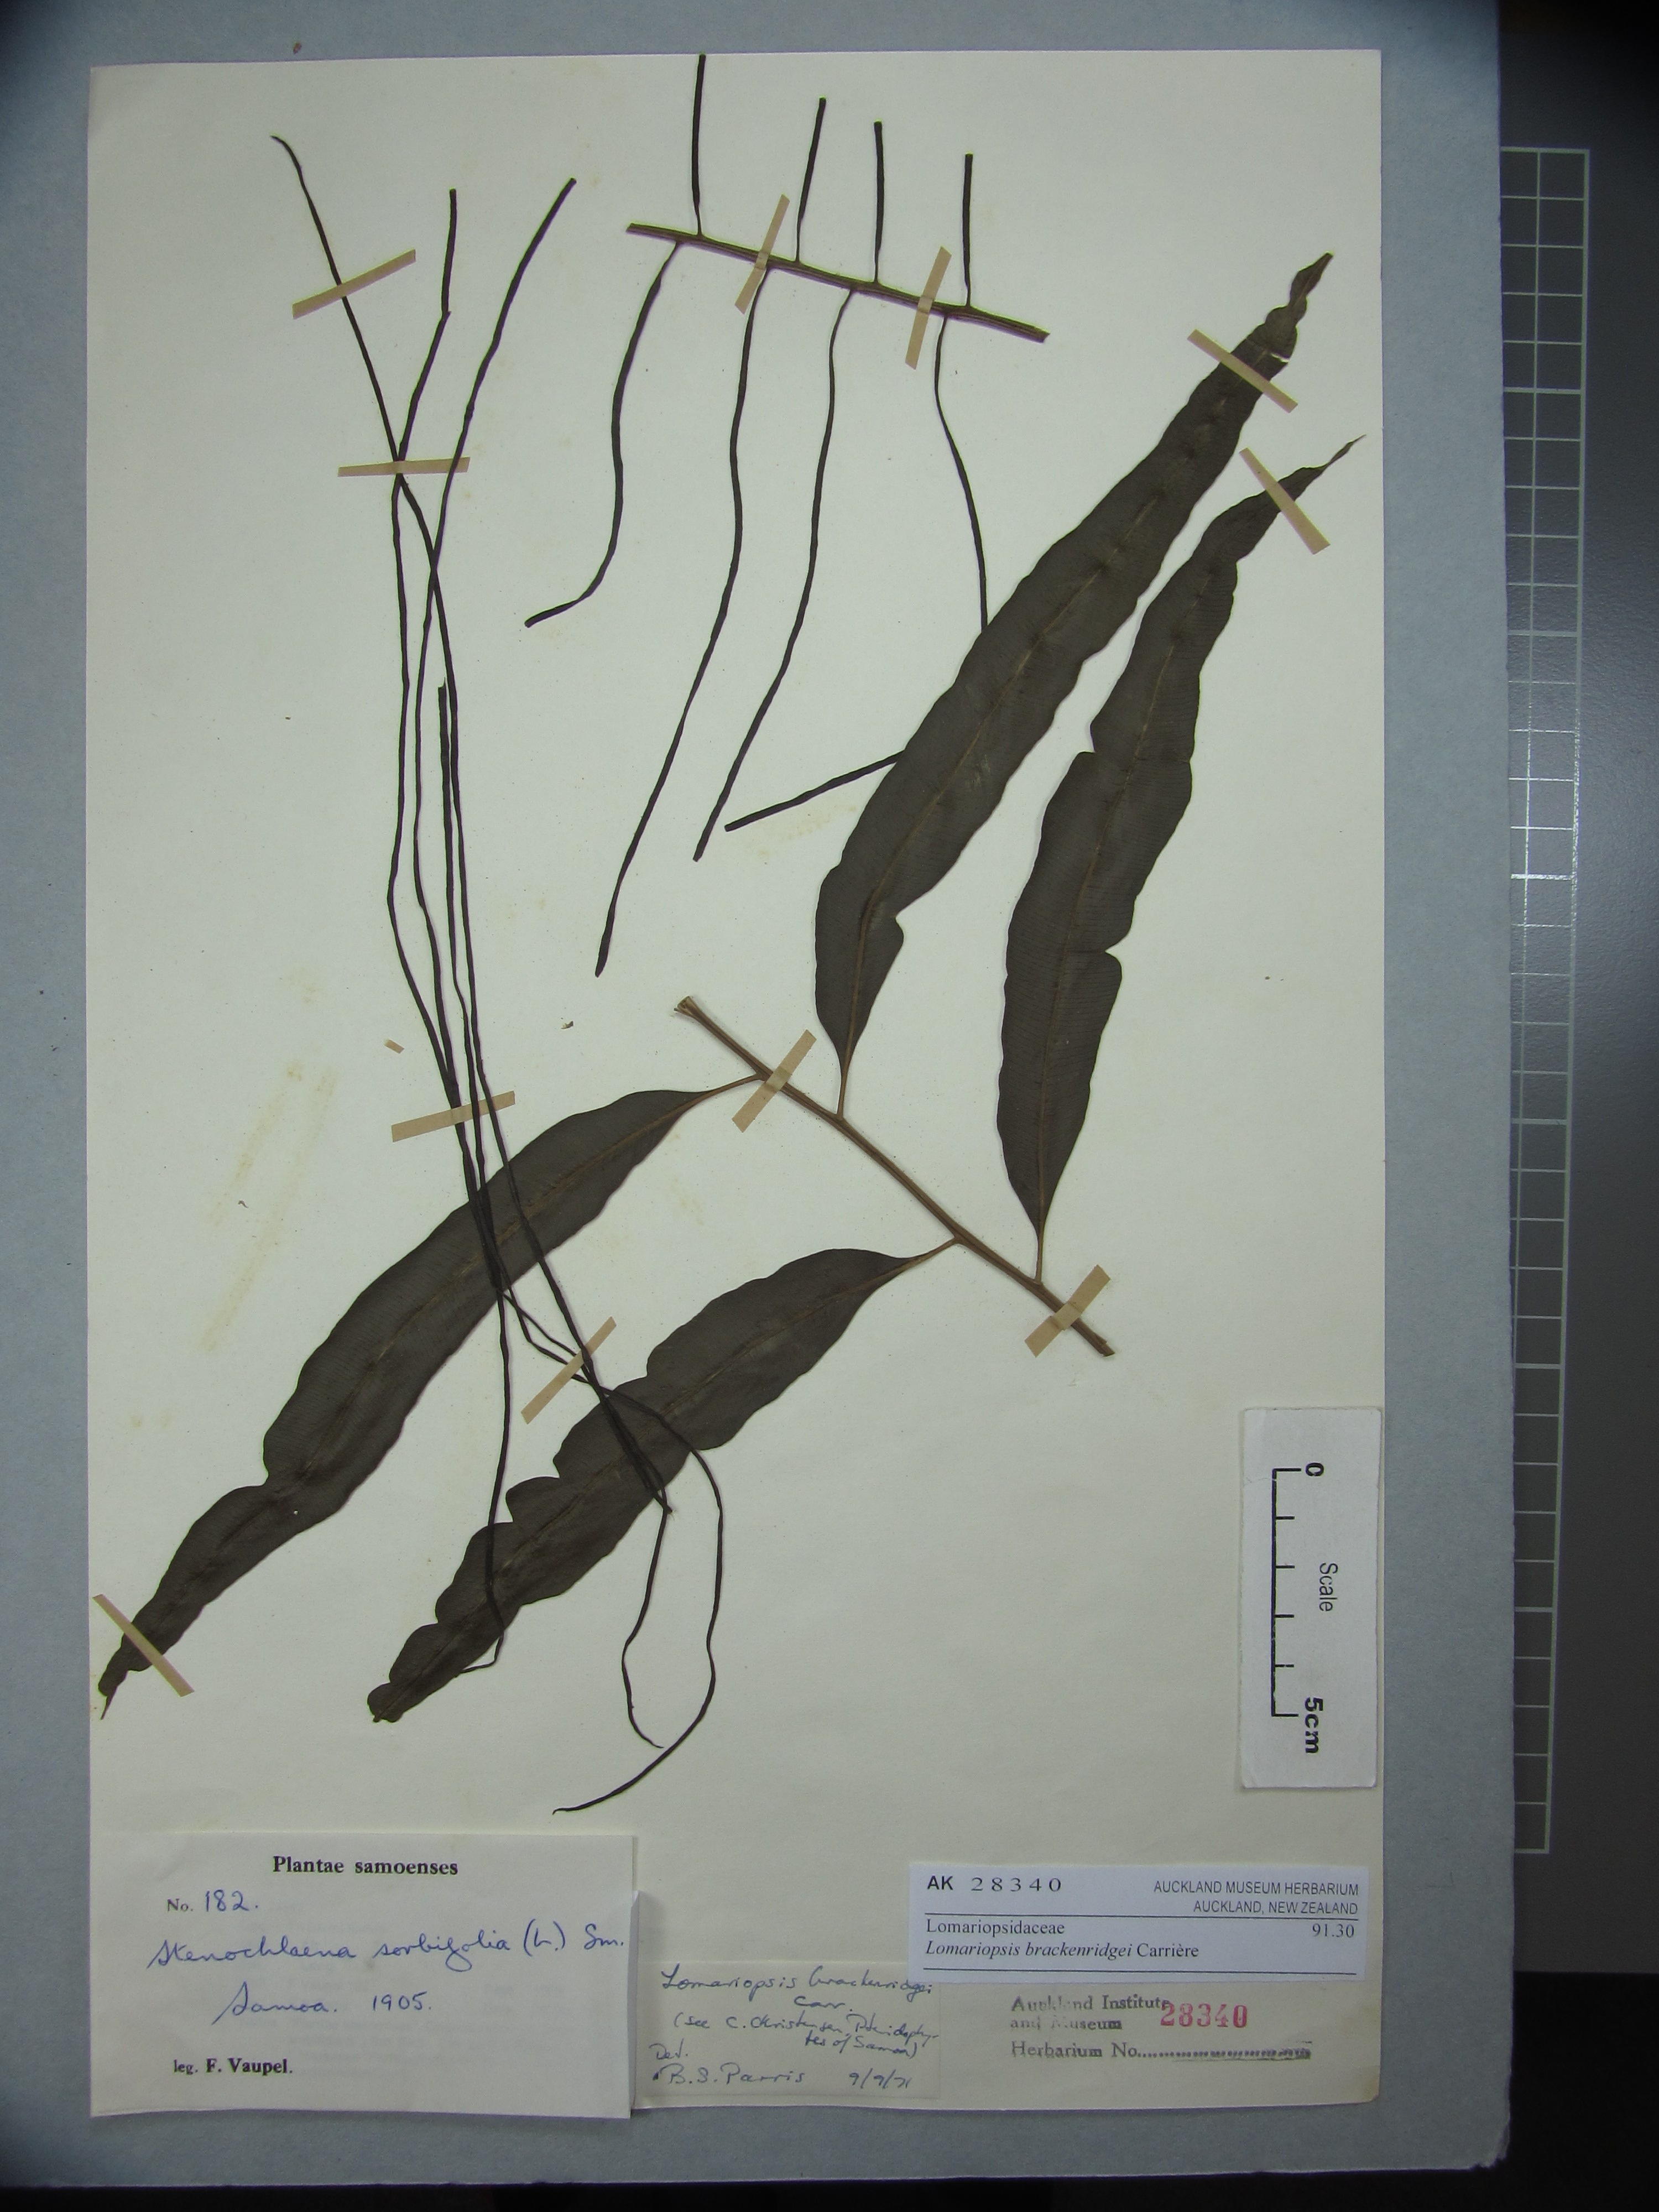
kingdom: Plantae
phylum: Tracheophyta
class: Polypodiopsida
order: Polypodiales
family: Lomariopsidaceae
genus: Lomariopsis
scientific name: Lomariopsis brackenridgei
